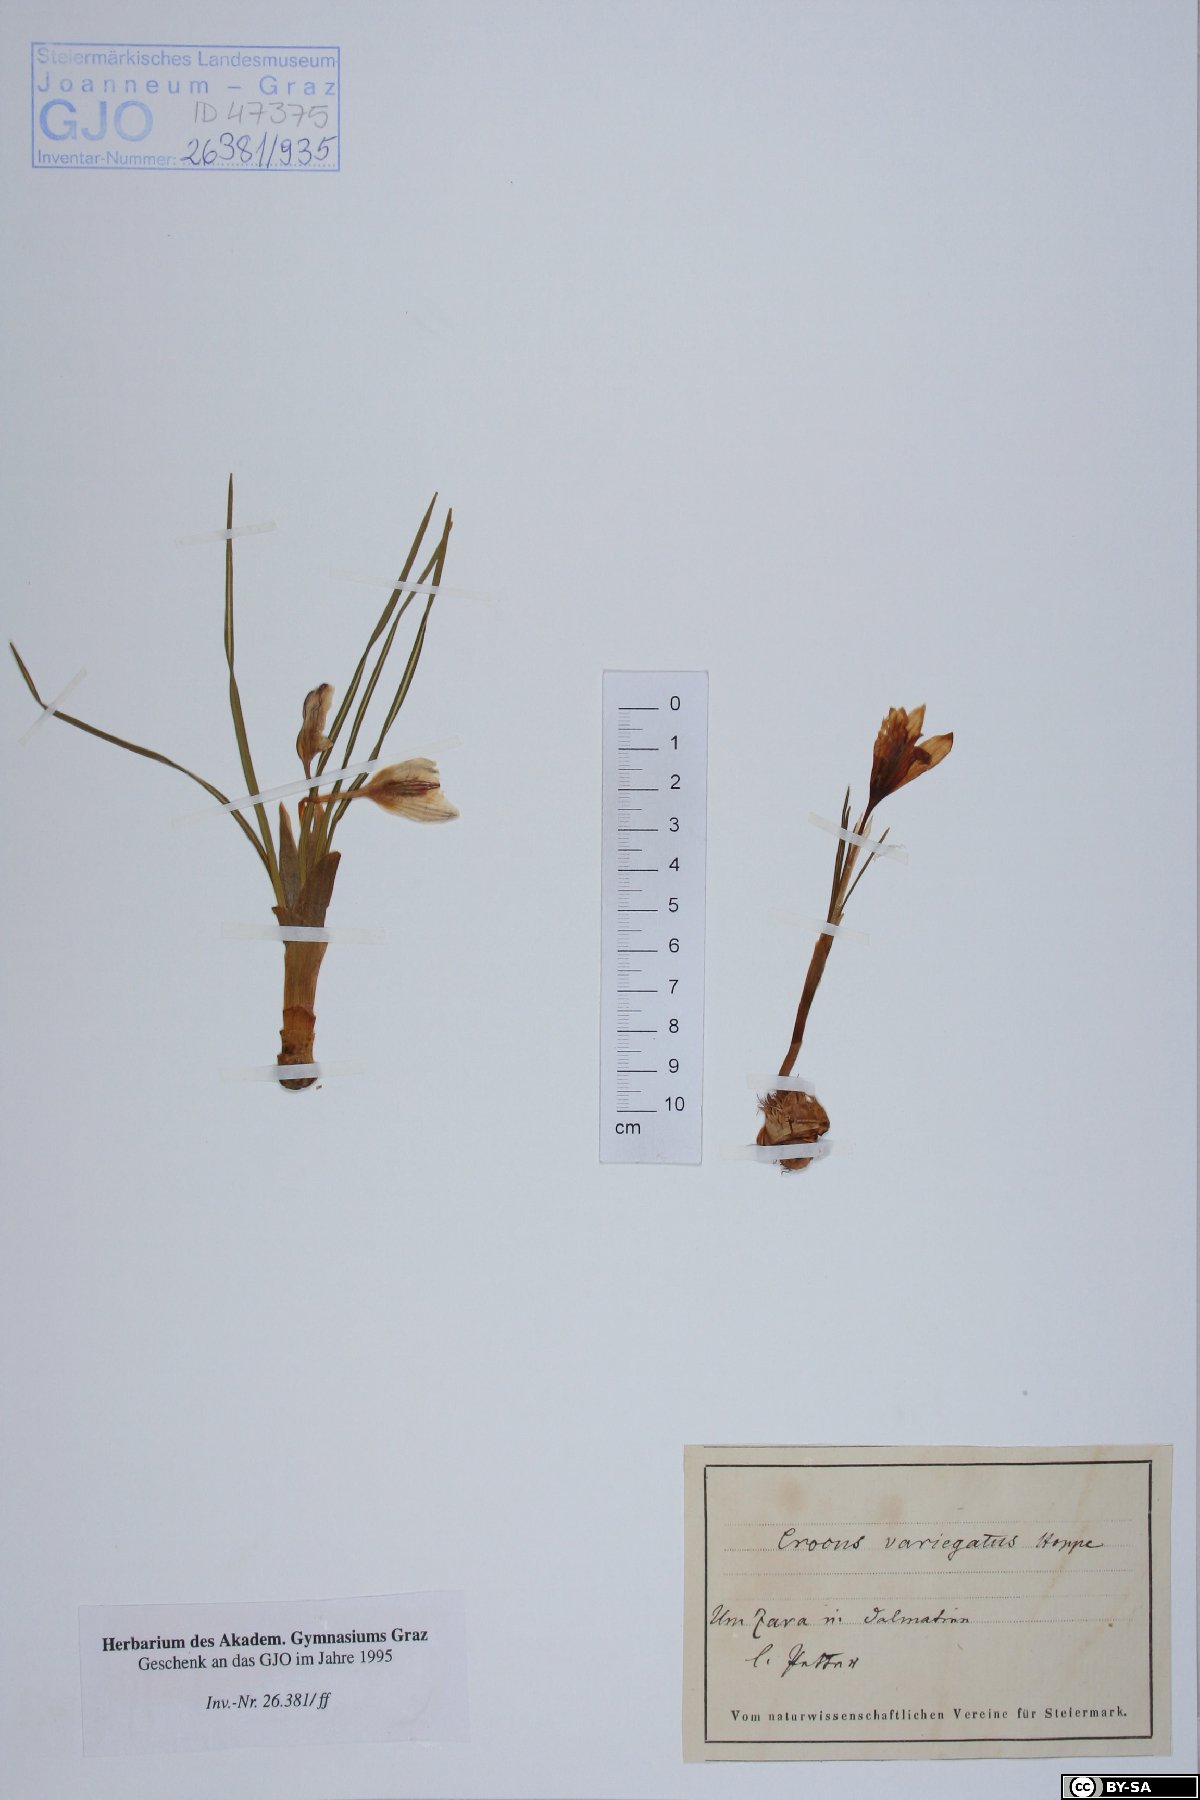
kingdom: Plantae
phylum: Tracheophyta
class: Liliopsida
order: Asparagales
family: Iridaceae
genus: Crocus
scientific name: Crocus variegatus
